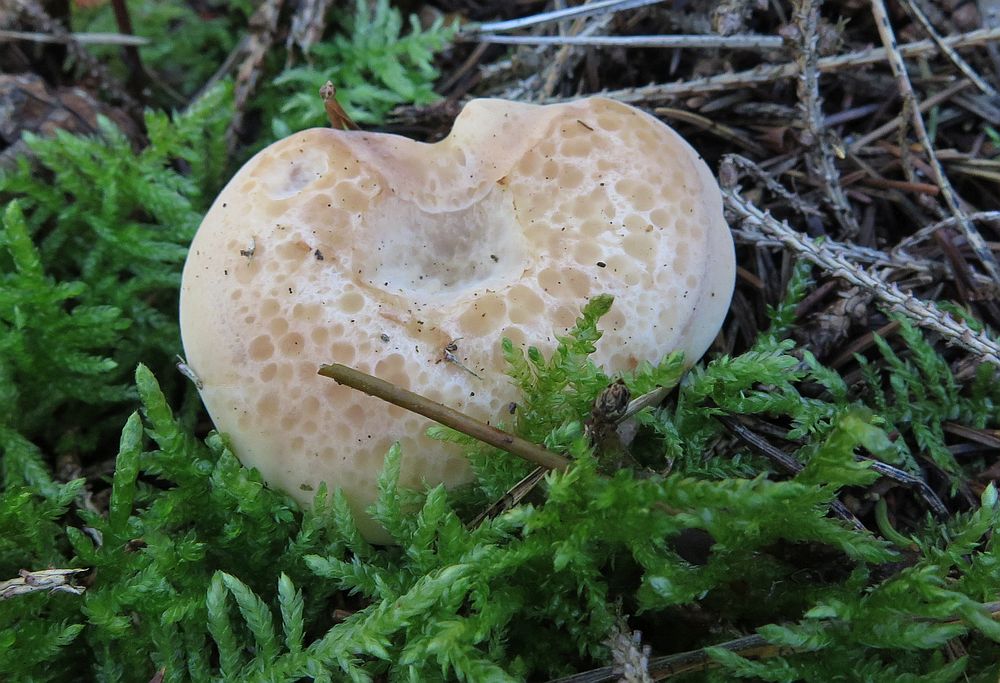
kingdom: Fungi
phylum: Basidiomycota
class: Agaricomycetes
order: Agaricales
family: Tricholomataceae
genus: Paralepista
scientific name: Paralepista gilva
